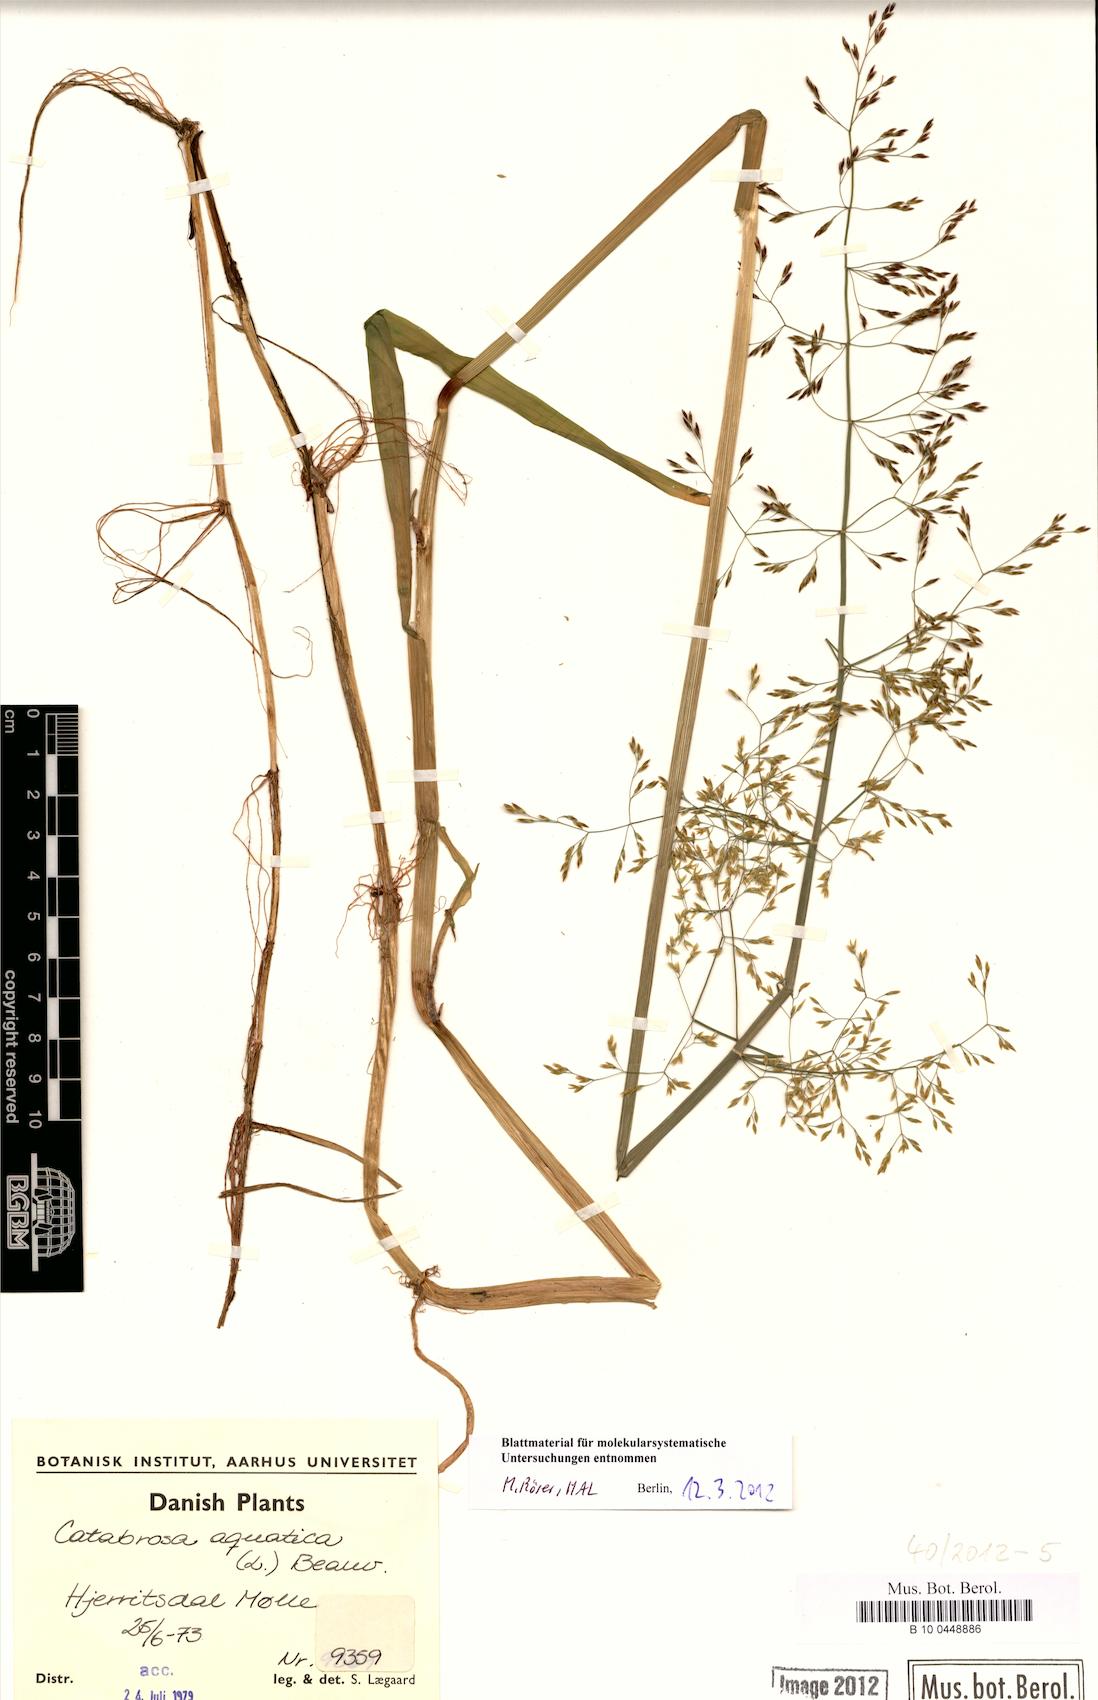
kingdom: Plantae
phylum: Tracheophyta
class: Liliopsida
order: Poales
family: Poaceae
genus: Catabrosa
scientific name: Catabrosa aquatica
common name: Whorl-grass
